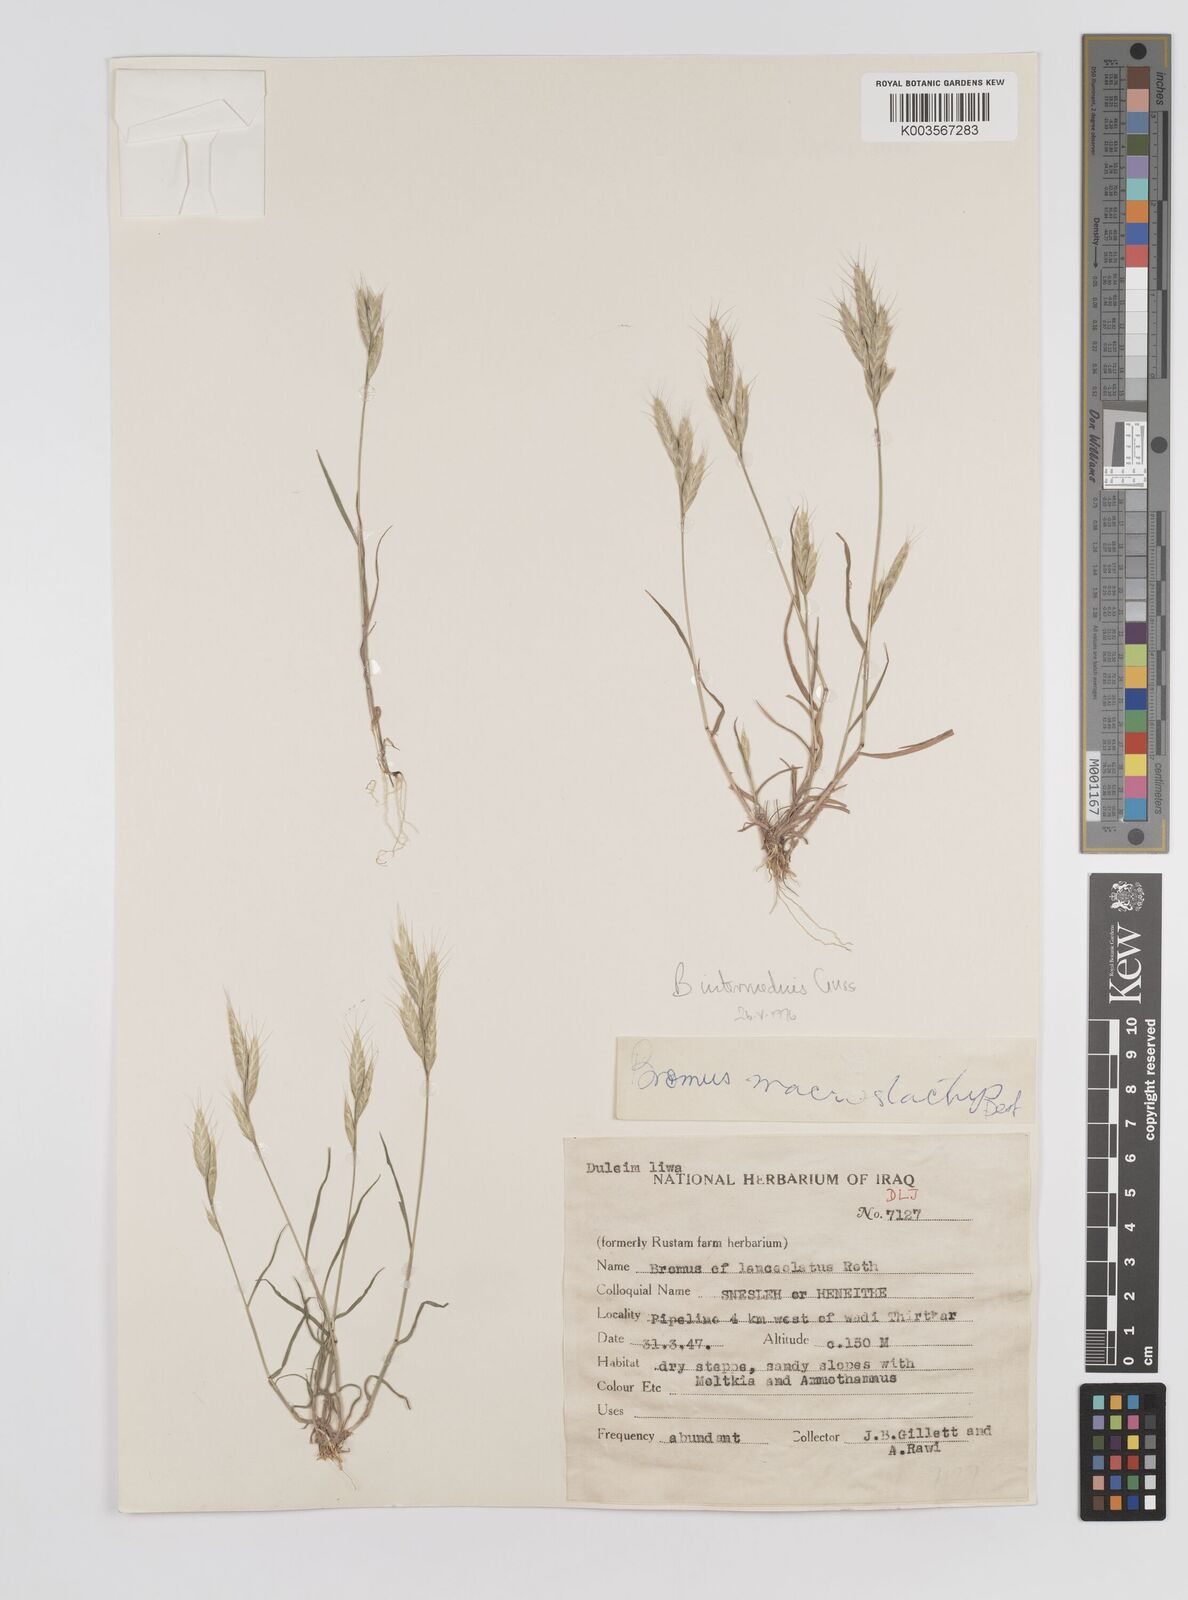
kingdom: Plantae
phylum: Tracheophyta
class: Liliopsida
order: Poales
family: Poaceae
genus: Bromus
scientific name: Bromus intermedius
